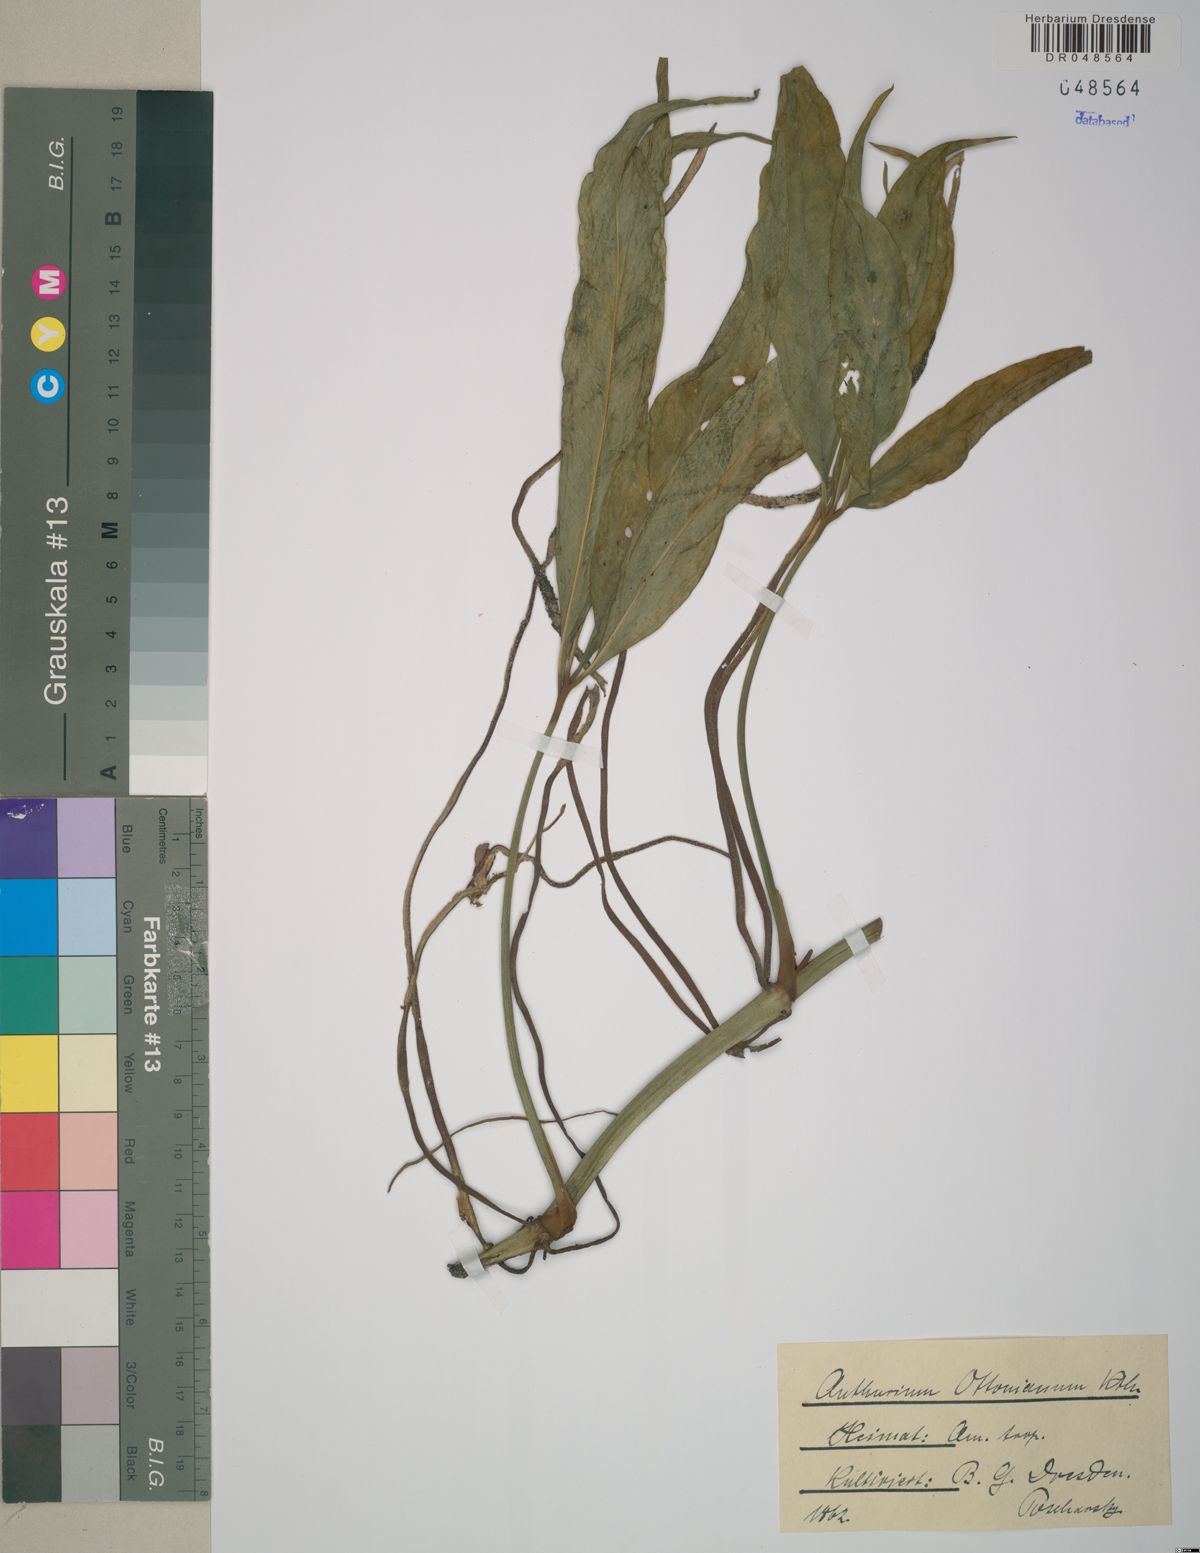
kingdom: Plantae
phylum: Tracheophyta
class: Liliopsida
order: Alismatales
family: Araceae
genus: Anthurium
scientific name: Anthurium pentaphyllum
